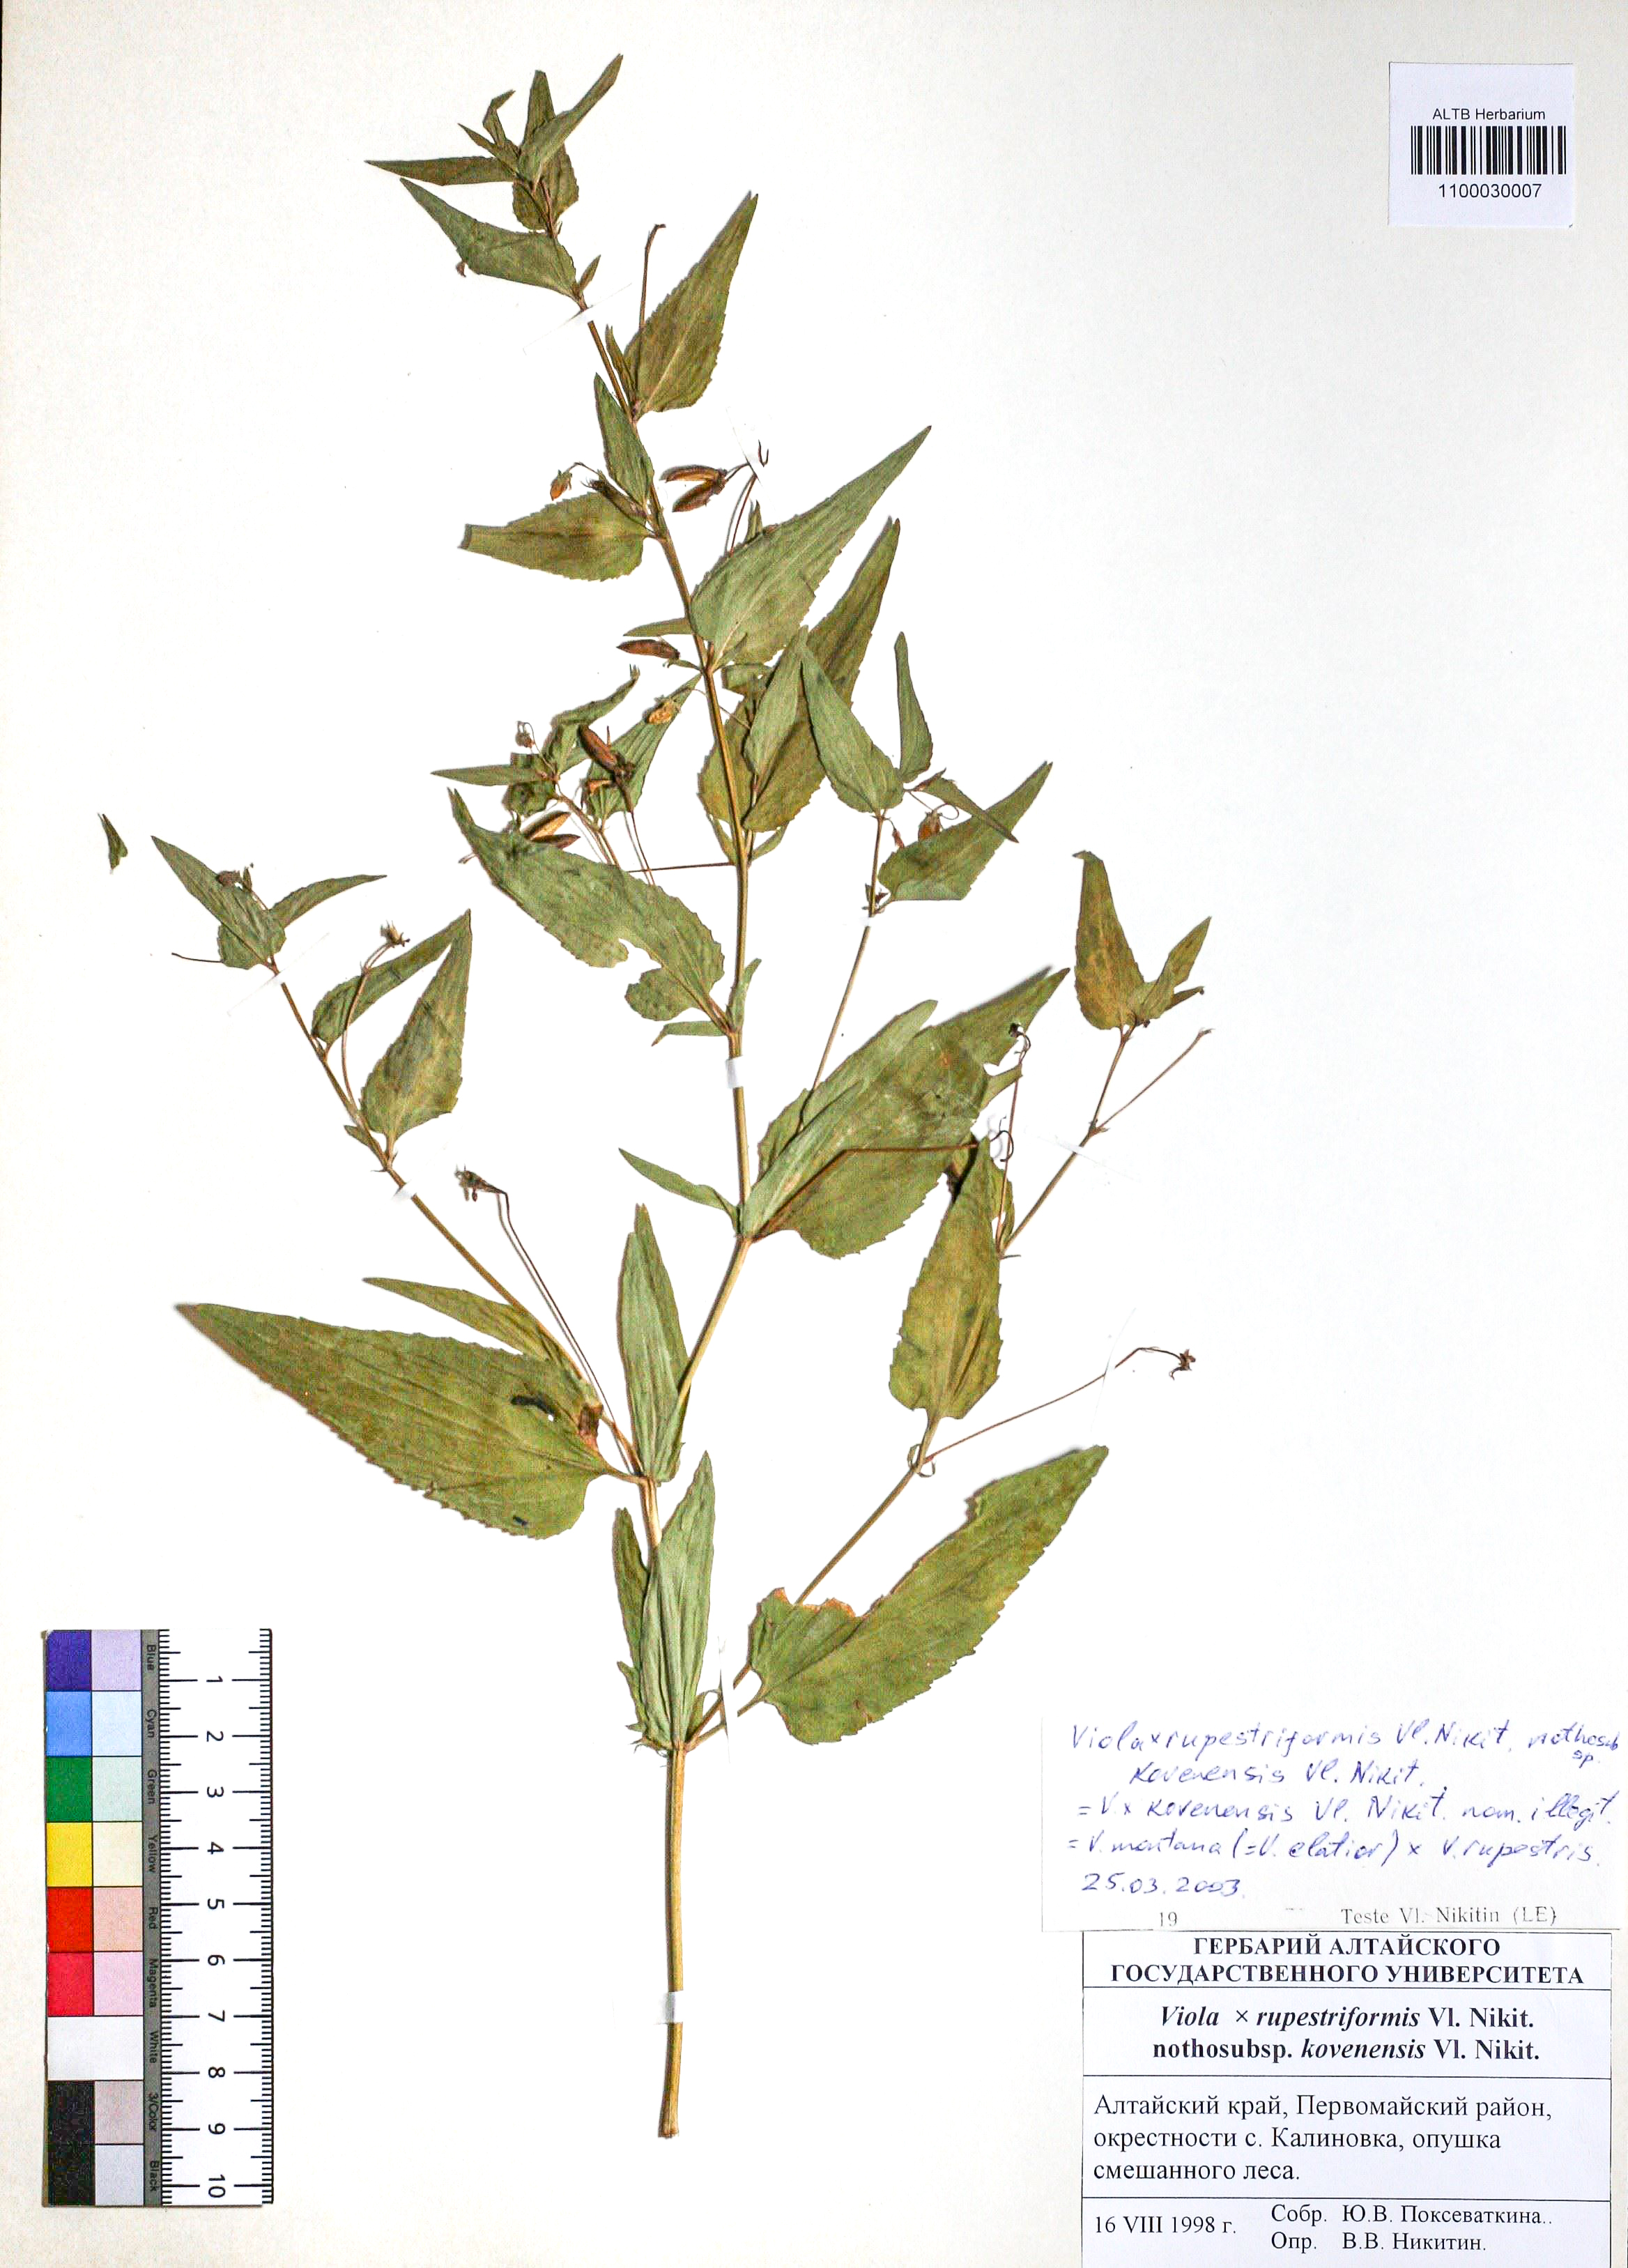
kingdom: Plantae
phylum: Tracheophyta
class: Magnoliopsida
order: Malpighiales
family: Violaceae
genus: Viola
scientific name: Viola rupestriformis
